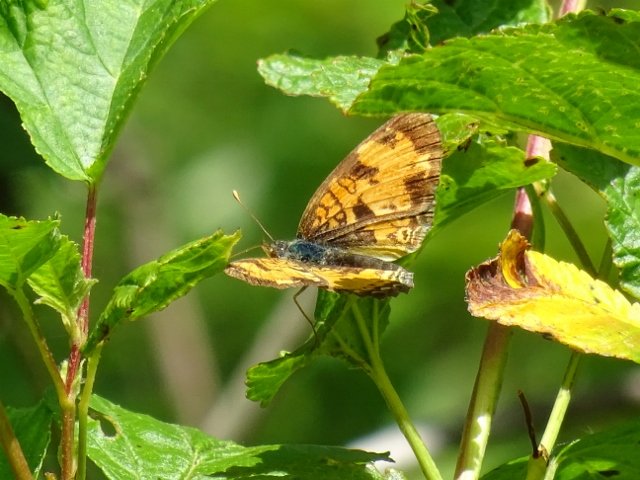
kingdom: Animalia
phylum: Arthropoda
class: Insecta
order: Lepidoptera
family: Nymphalidae
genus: Phyciodes
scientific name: Phyciodes tharos
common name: Northern Crescent
